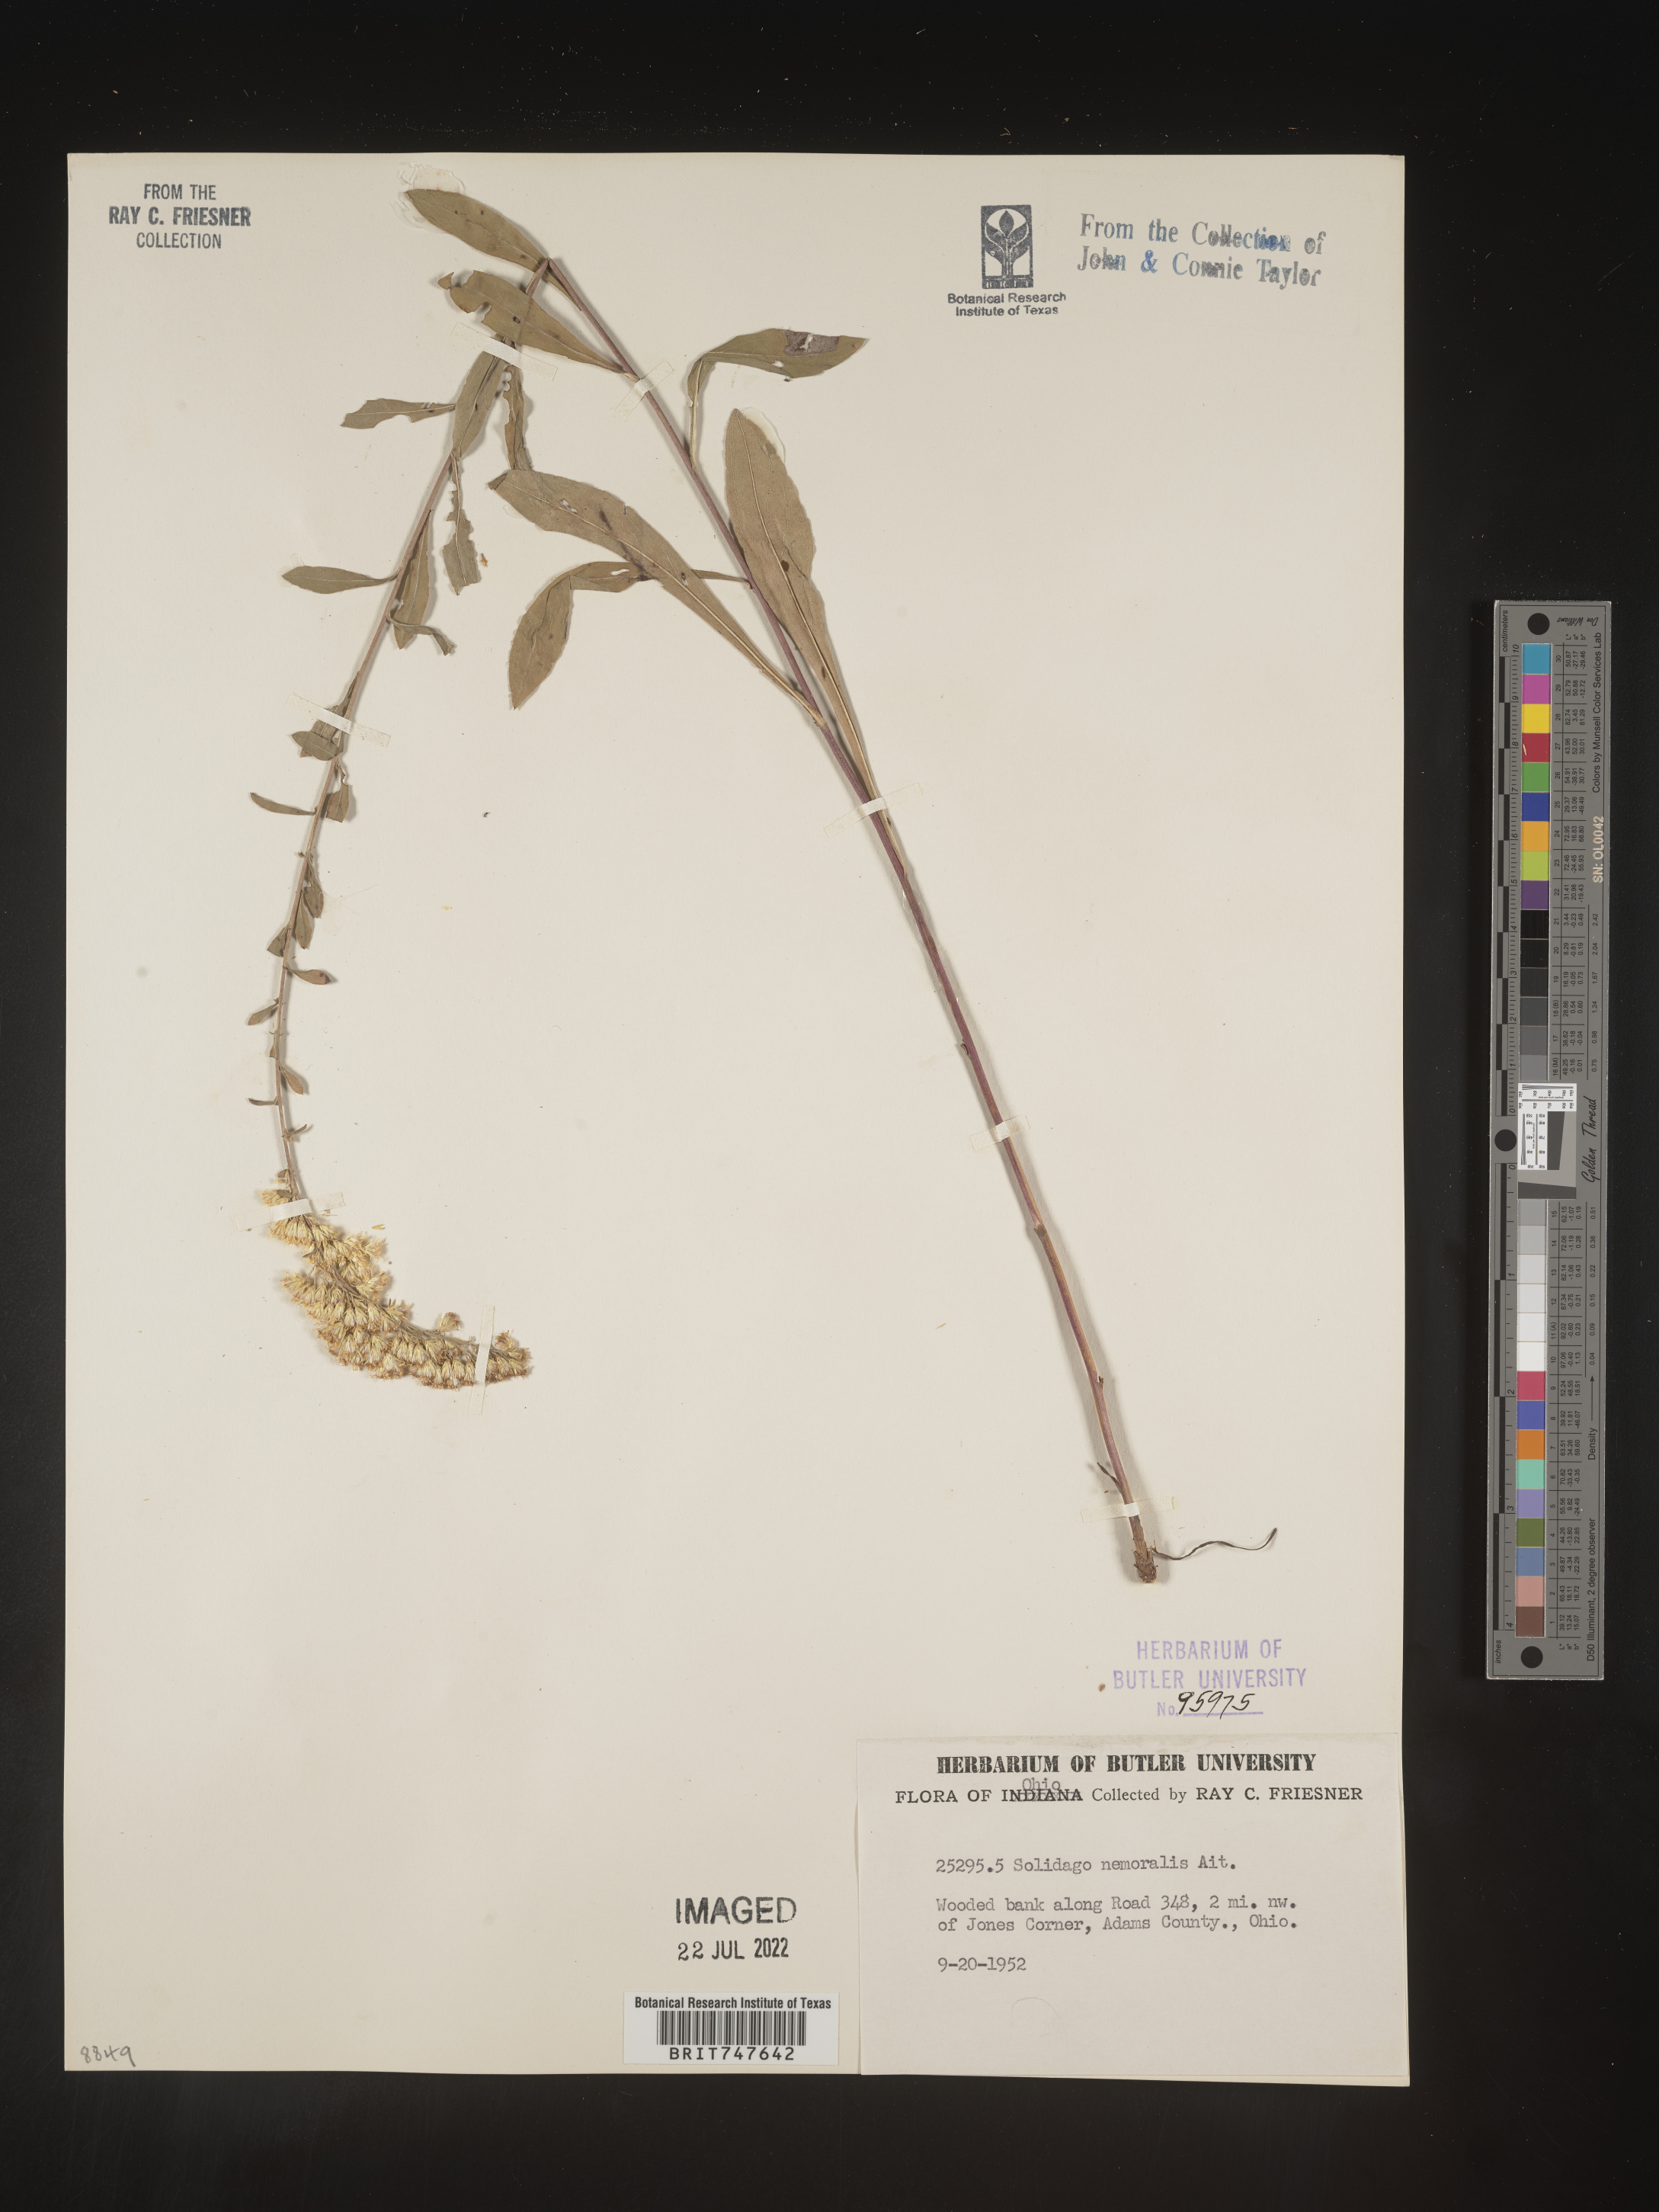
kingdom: Plantae
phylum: Tracheophyta
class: Magnoliopsida
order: Asterales
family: Asteraceae
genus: Solidago
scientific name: Solidago nemoralis
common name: Grey goldenrod
